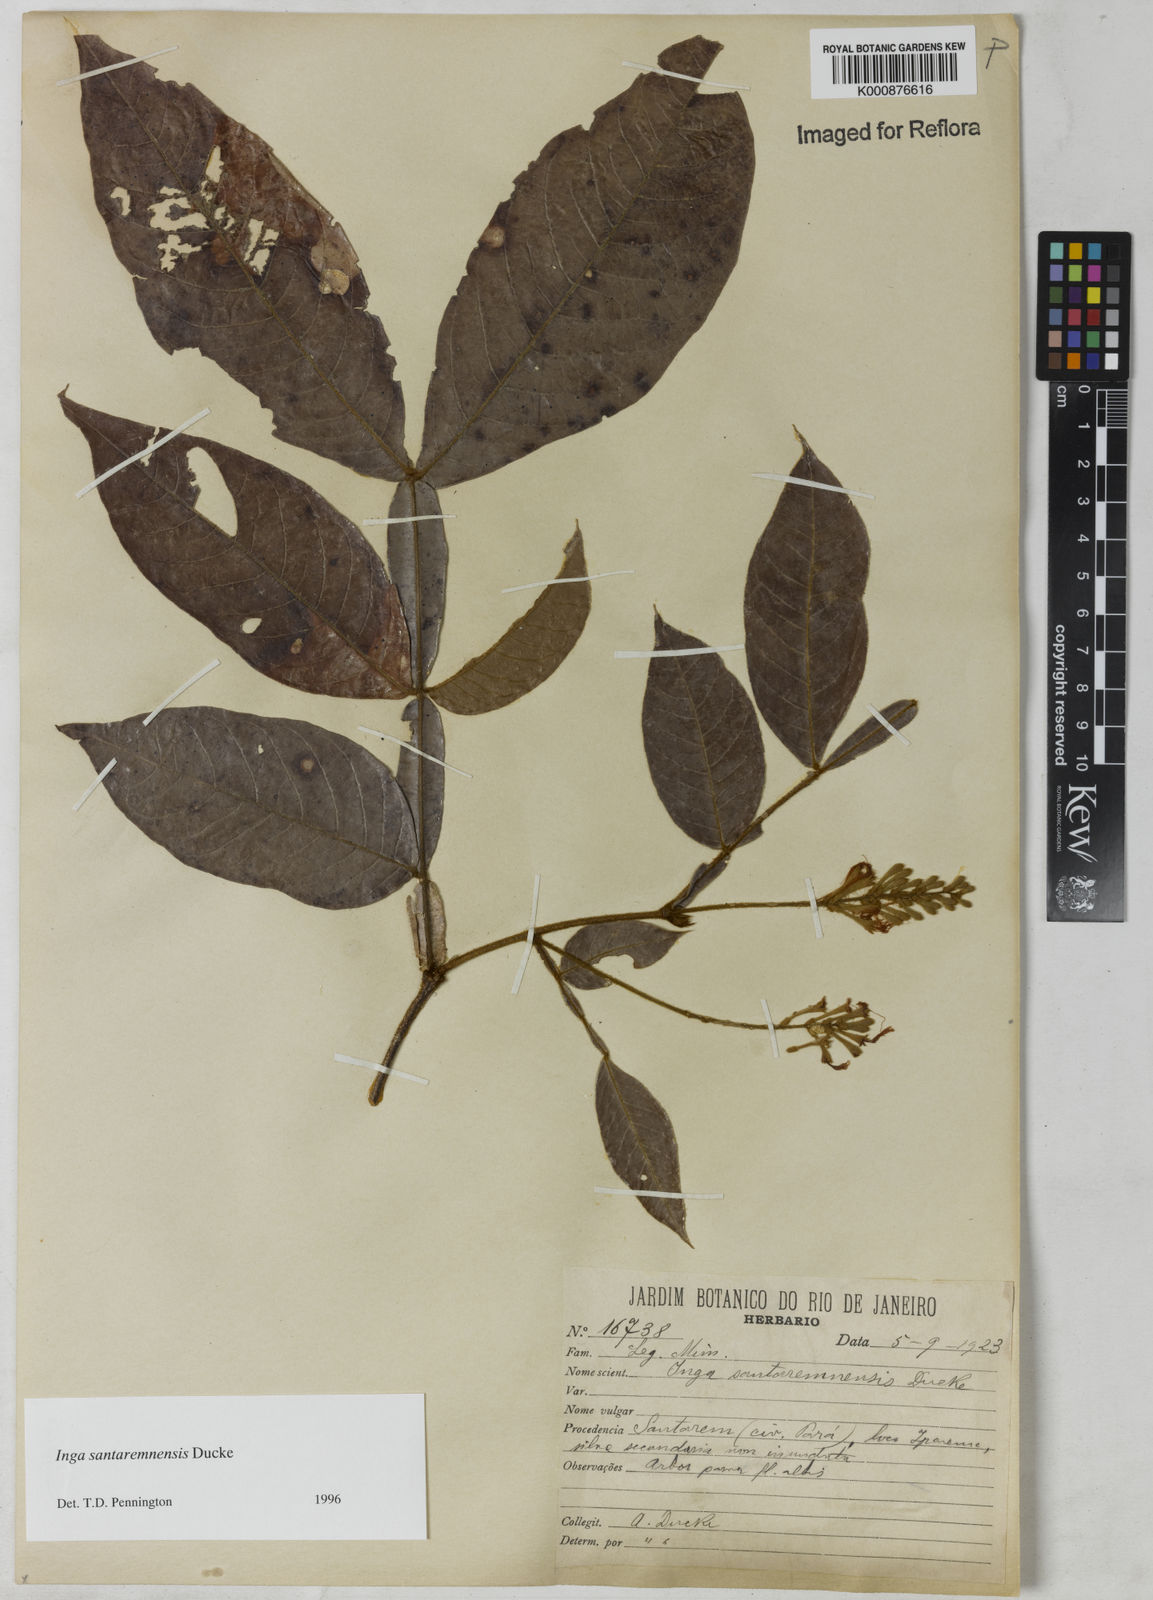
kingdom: Plantae
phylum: Tracheophyta
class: Magnoliopsida
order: Fabales
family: Fabaceae
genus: Inga
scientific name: Inga santaremnensis
